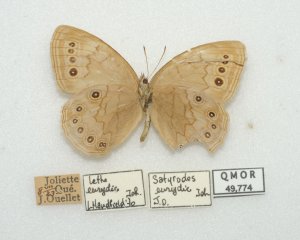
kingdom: Animalia
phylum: Arthropoda
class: Insecta
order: Lepidoptera
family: Nymphalidae
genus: Lethe
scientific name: Lethe eurydice
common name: Eyed Brown
